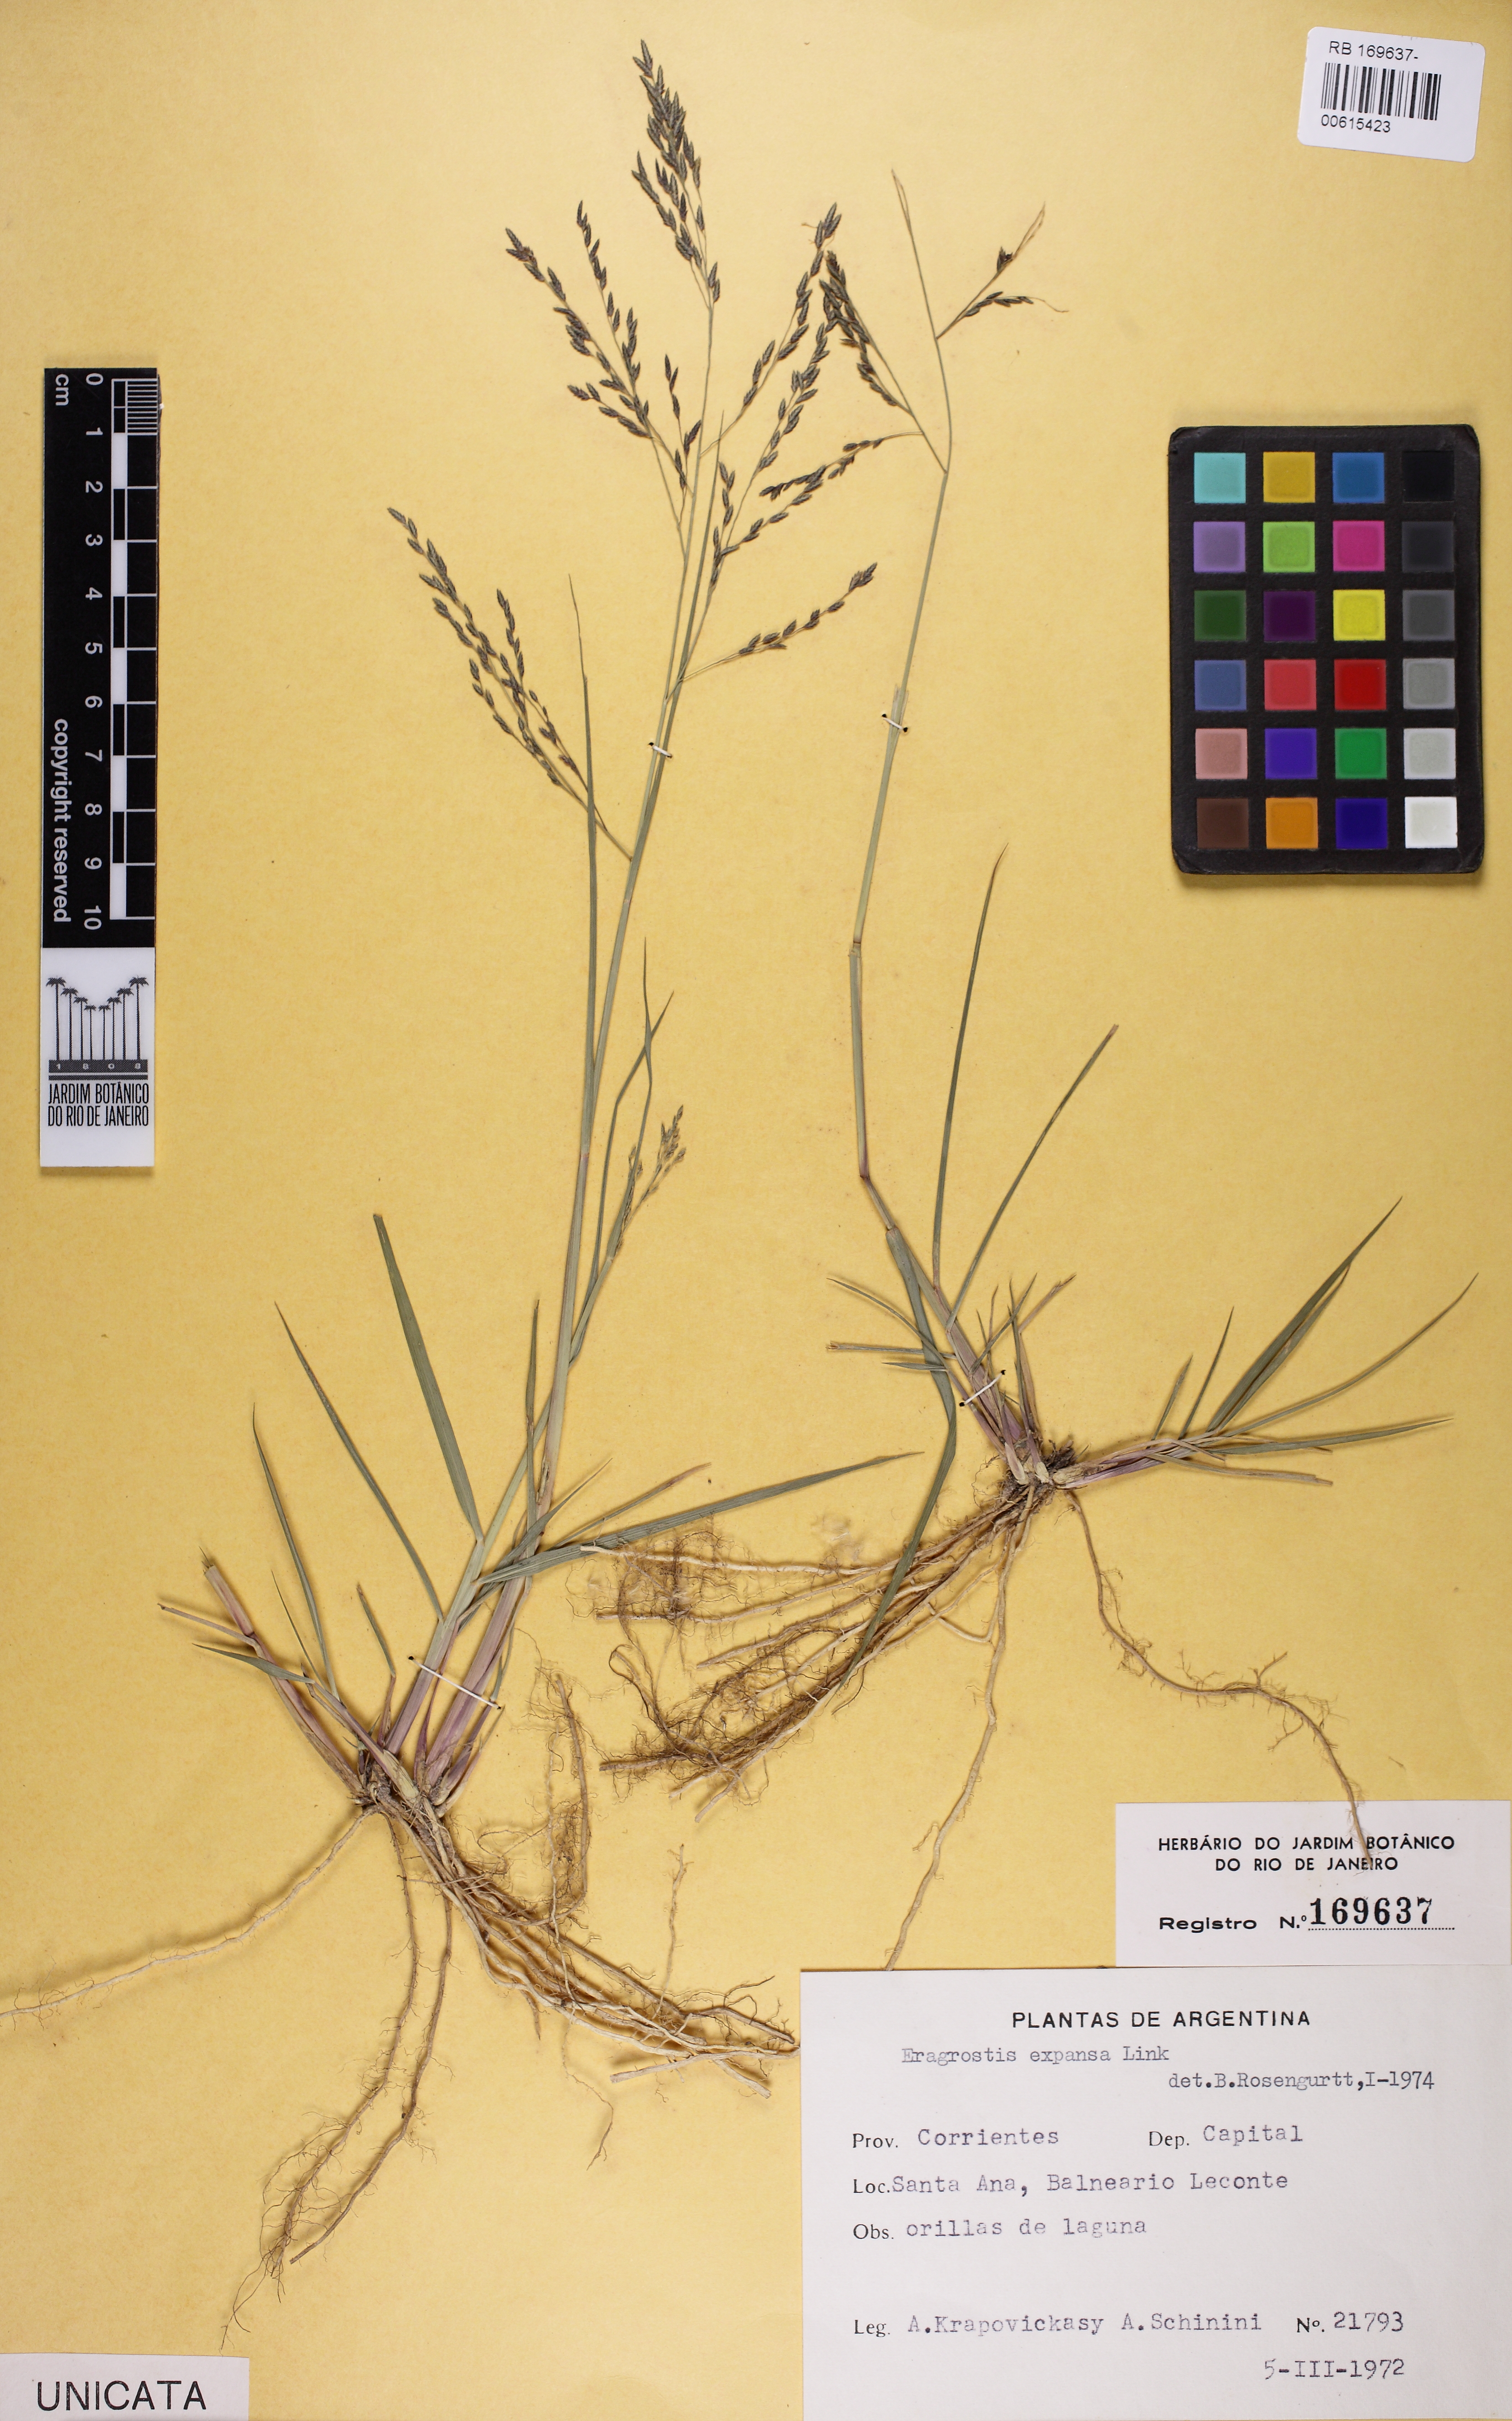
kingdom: Plantae
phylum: Tracheophyta
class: Liliopsida
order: Poales
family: Poaceae
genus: Eragrostis
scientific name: Eragrostis bahiensis
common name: Bahia lovegrass
